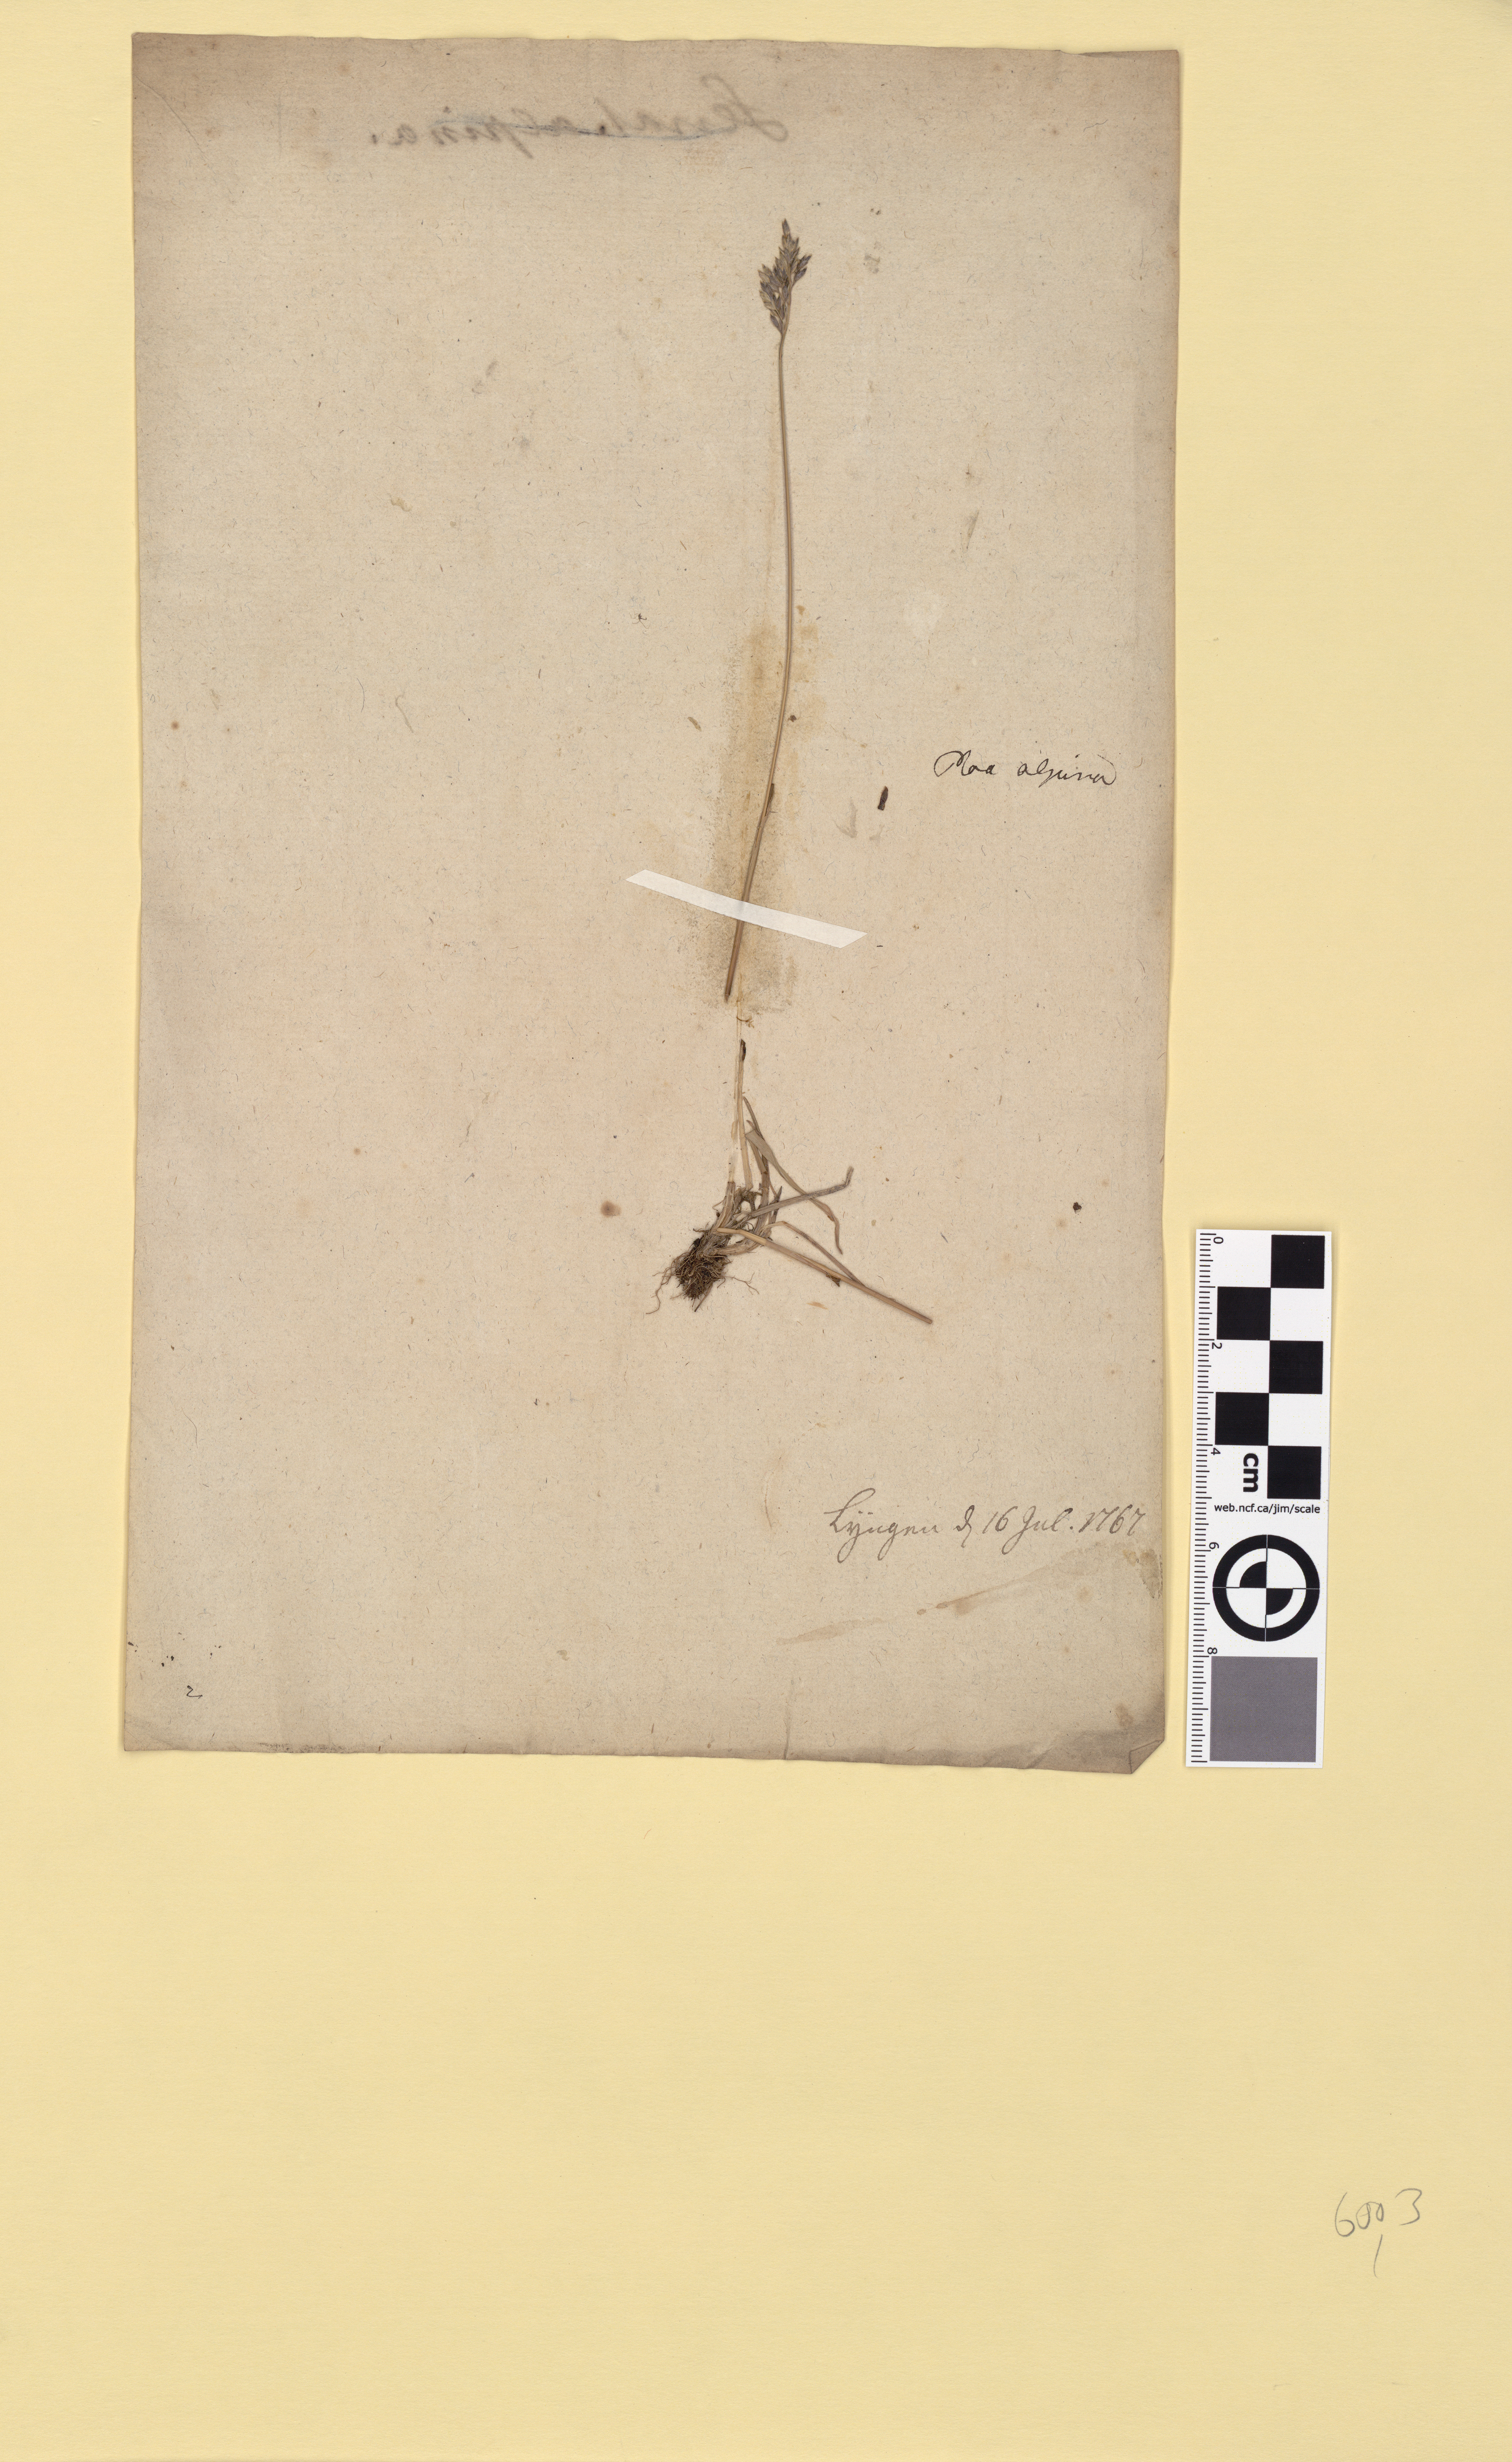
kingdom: Plantae
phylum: Tracheophyta
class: Liliopsida
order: Poales
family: Poaceae
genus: Poa
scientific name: Poa alpina
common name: Alpine bluegrass
